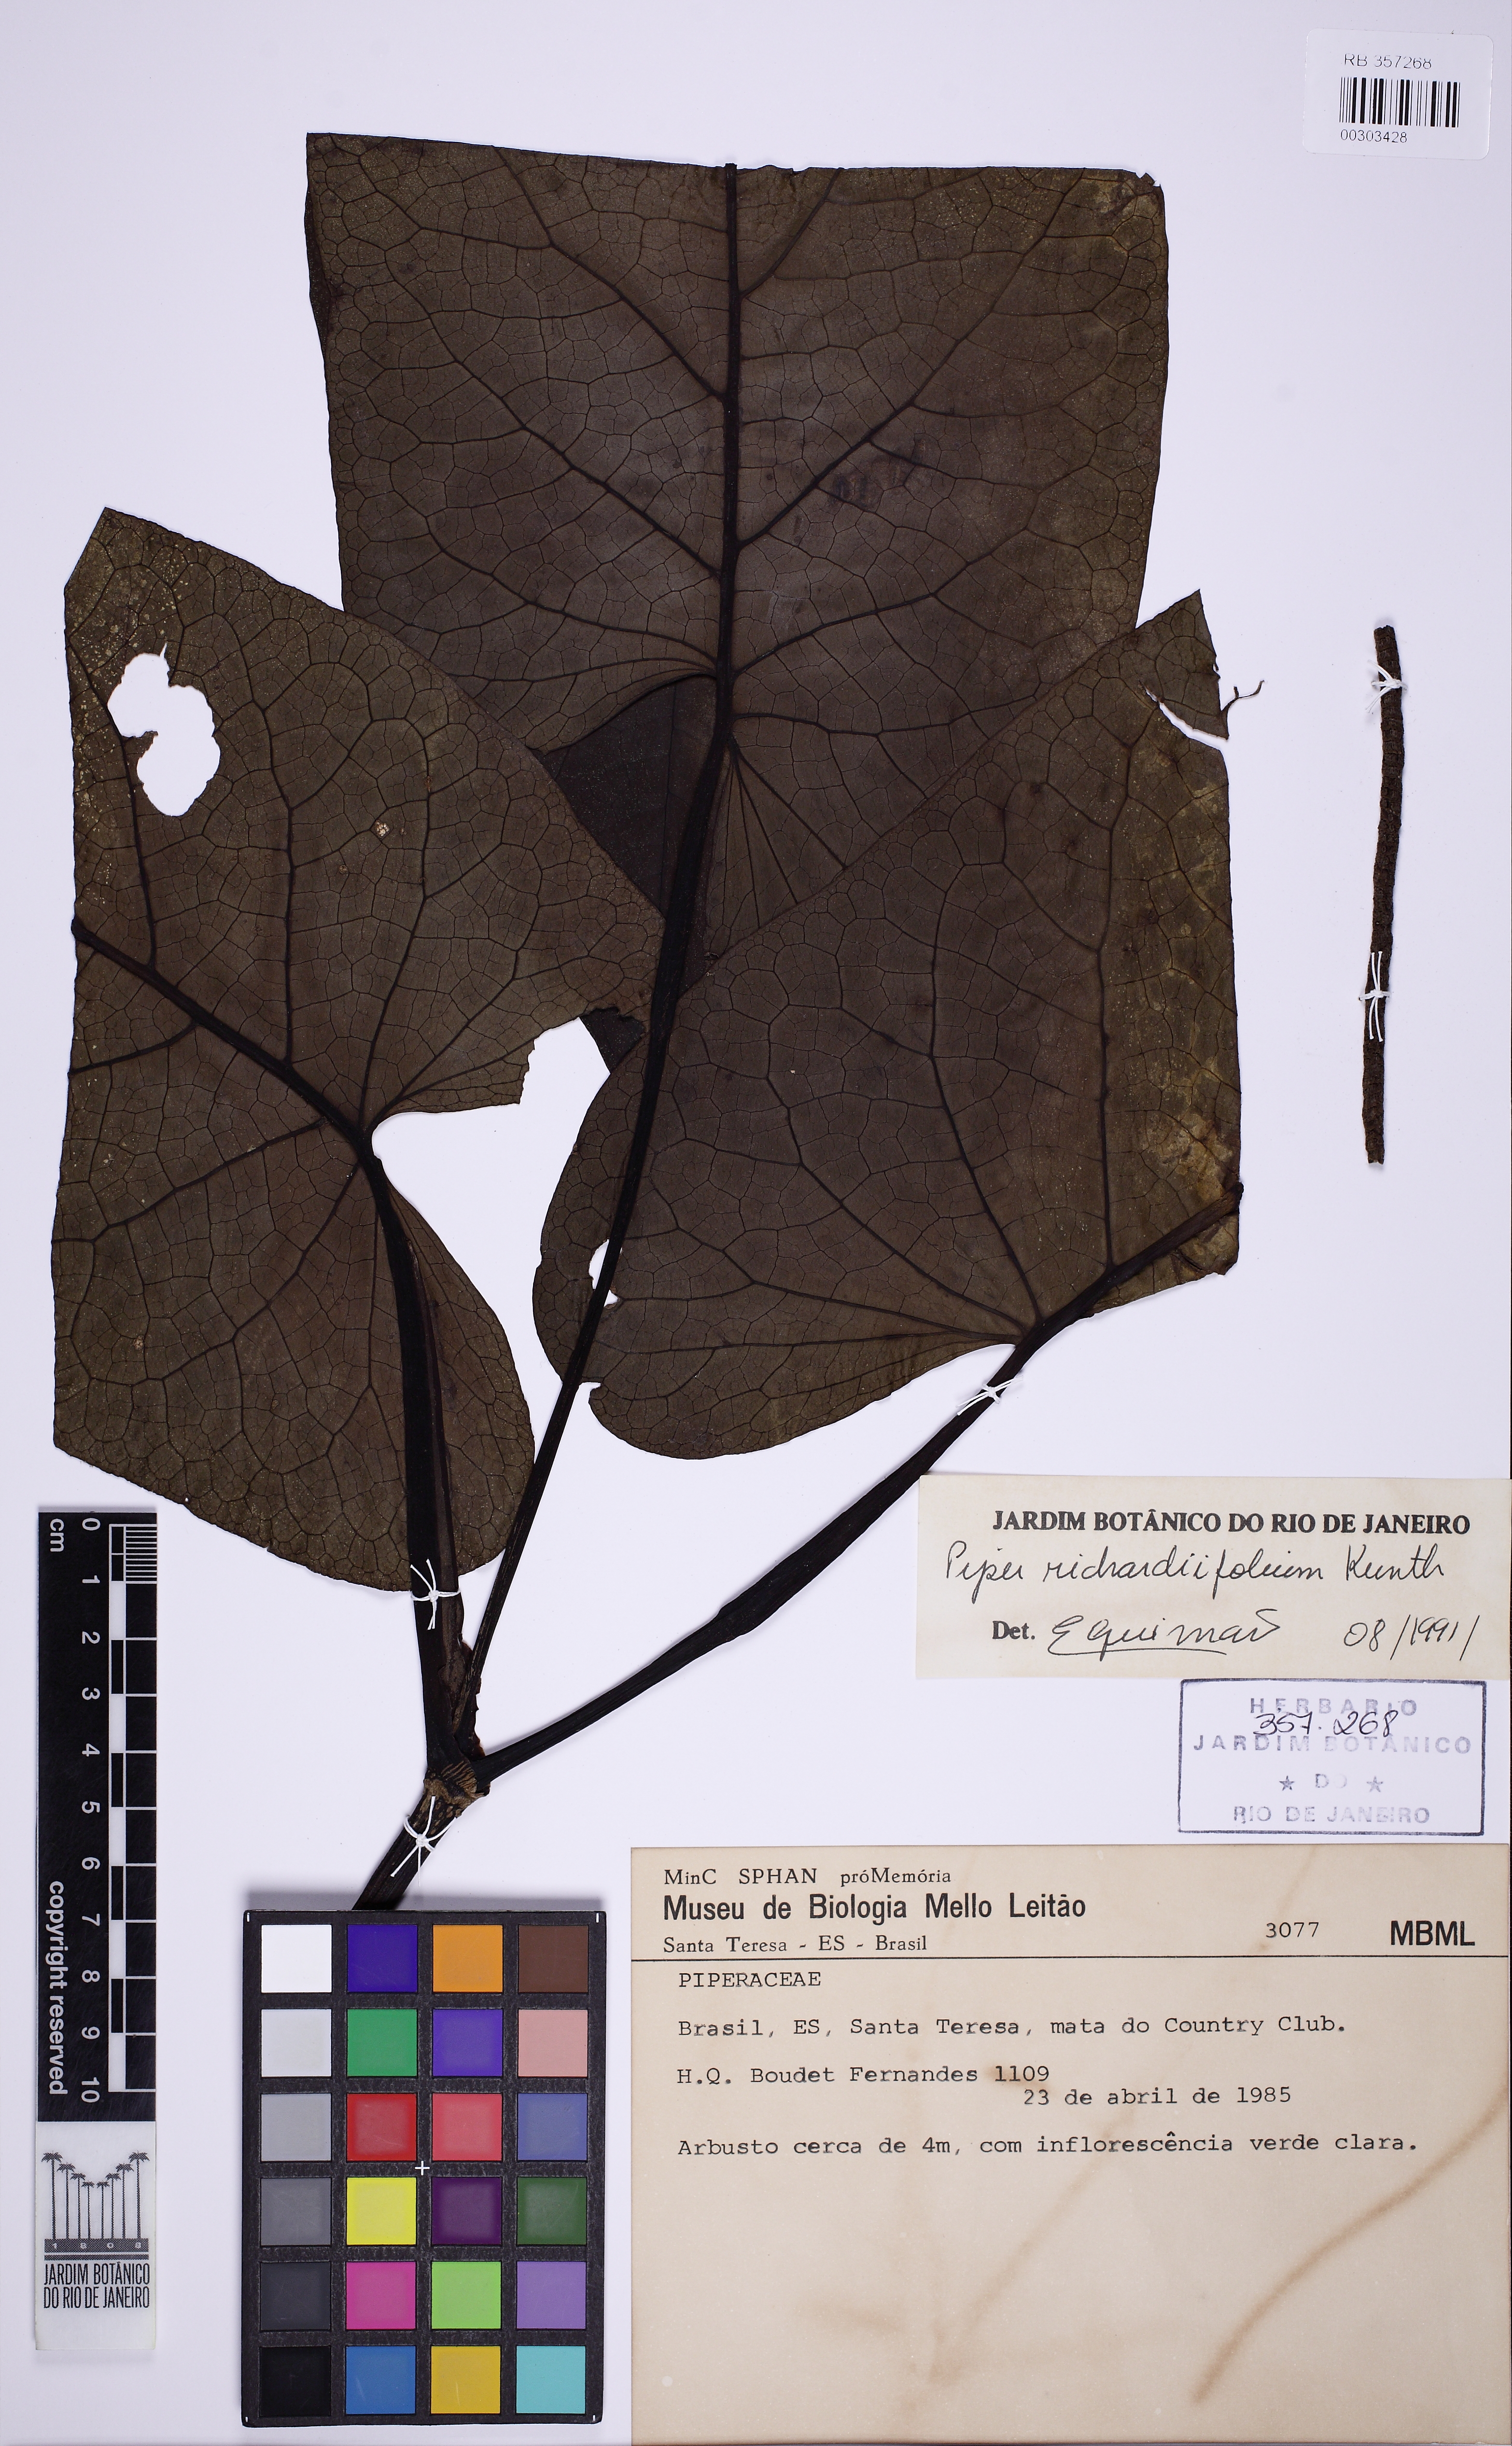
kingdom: Plantae
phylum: Tracheophyta
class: Magnoliopsida
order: Piperales
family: Piperaceae
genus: Piper
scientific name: Piper richardiifolium
